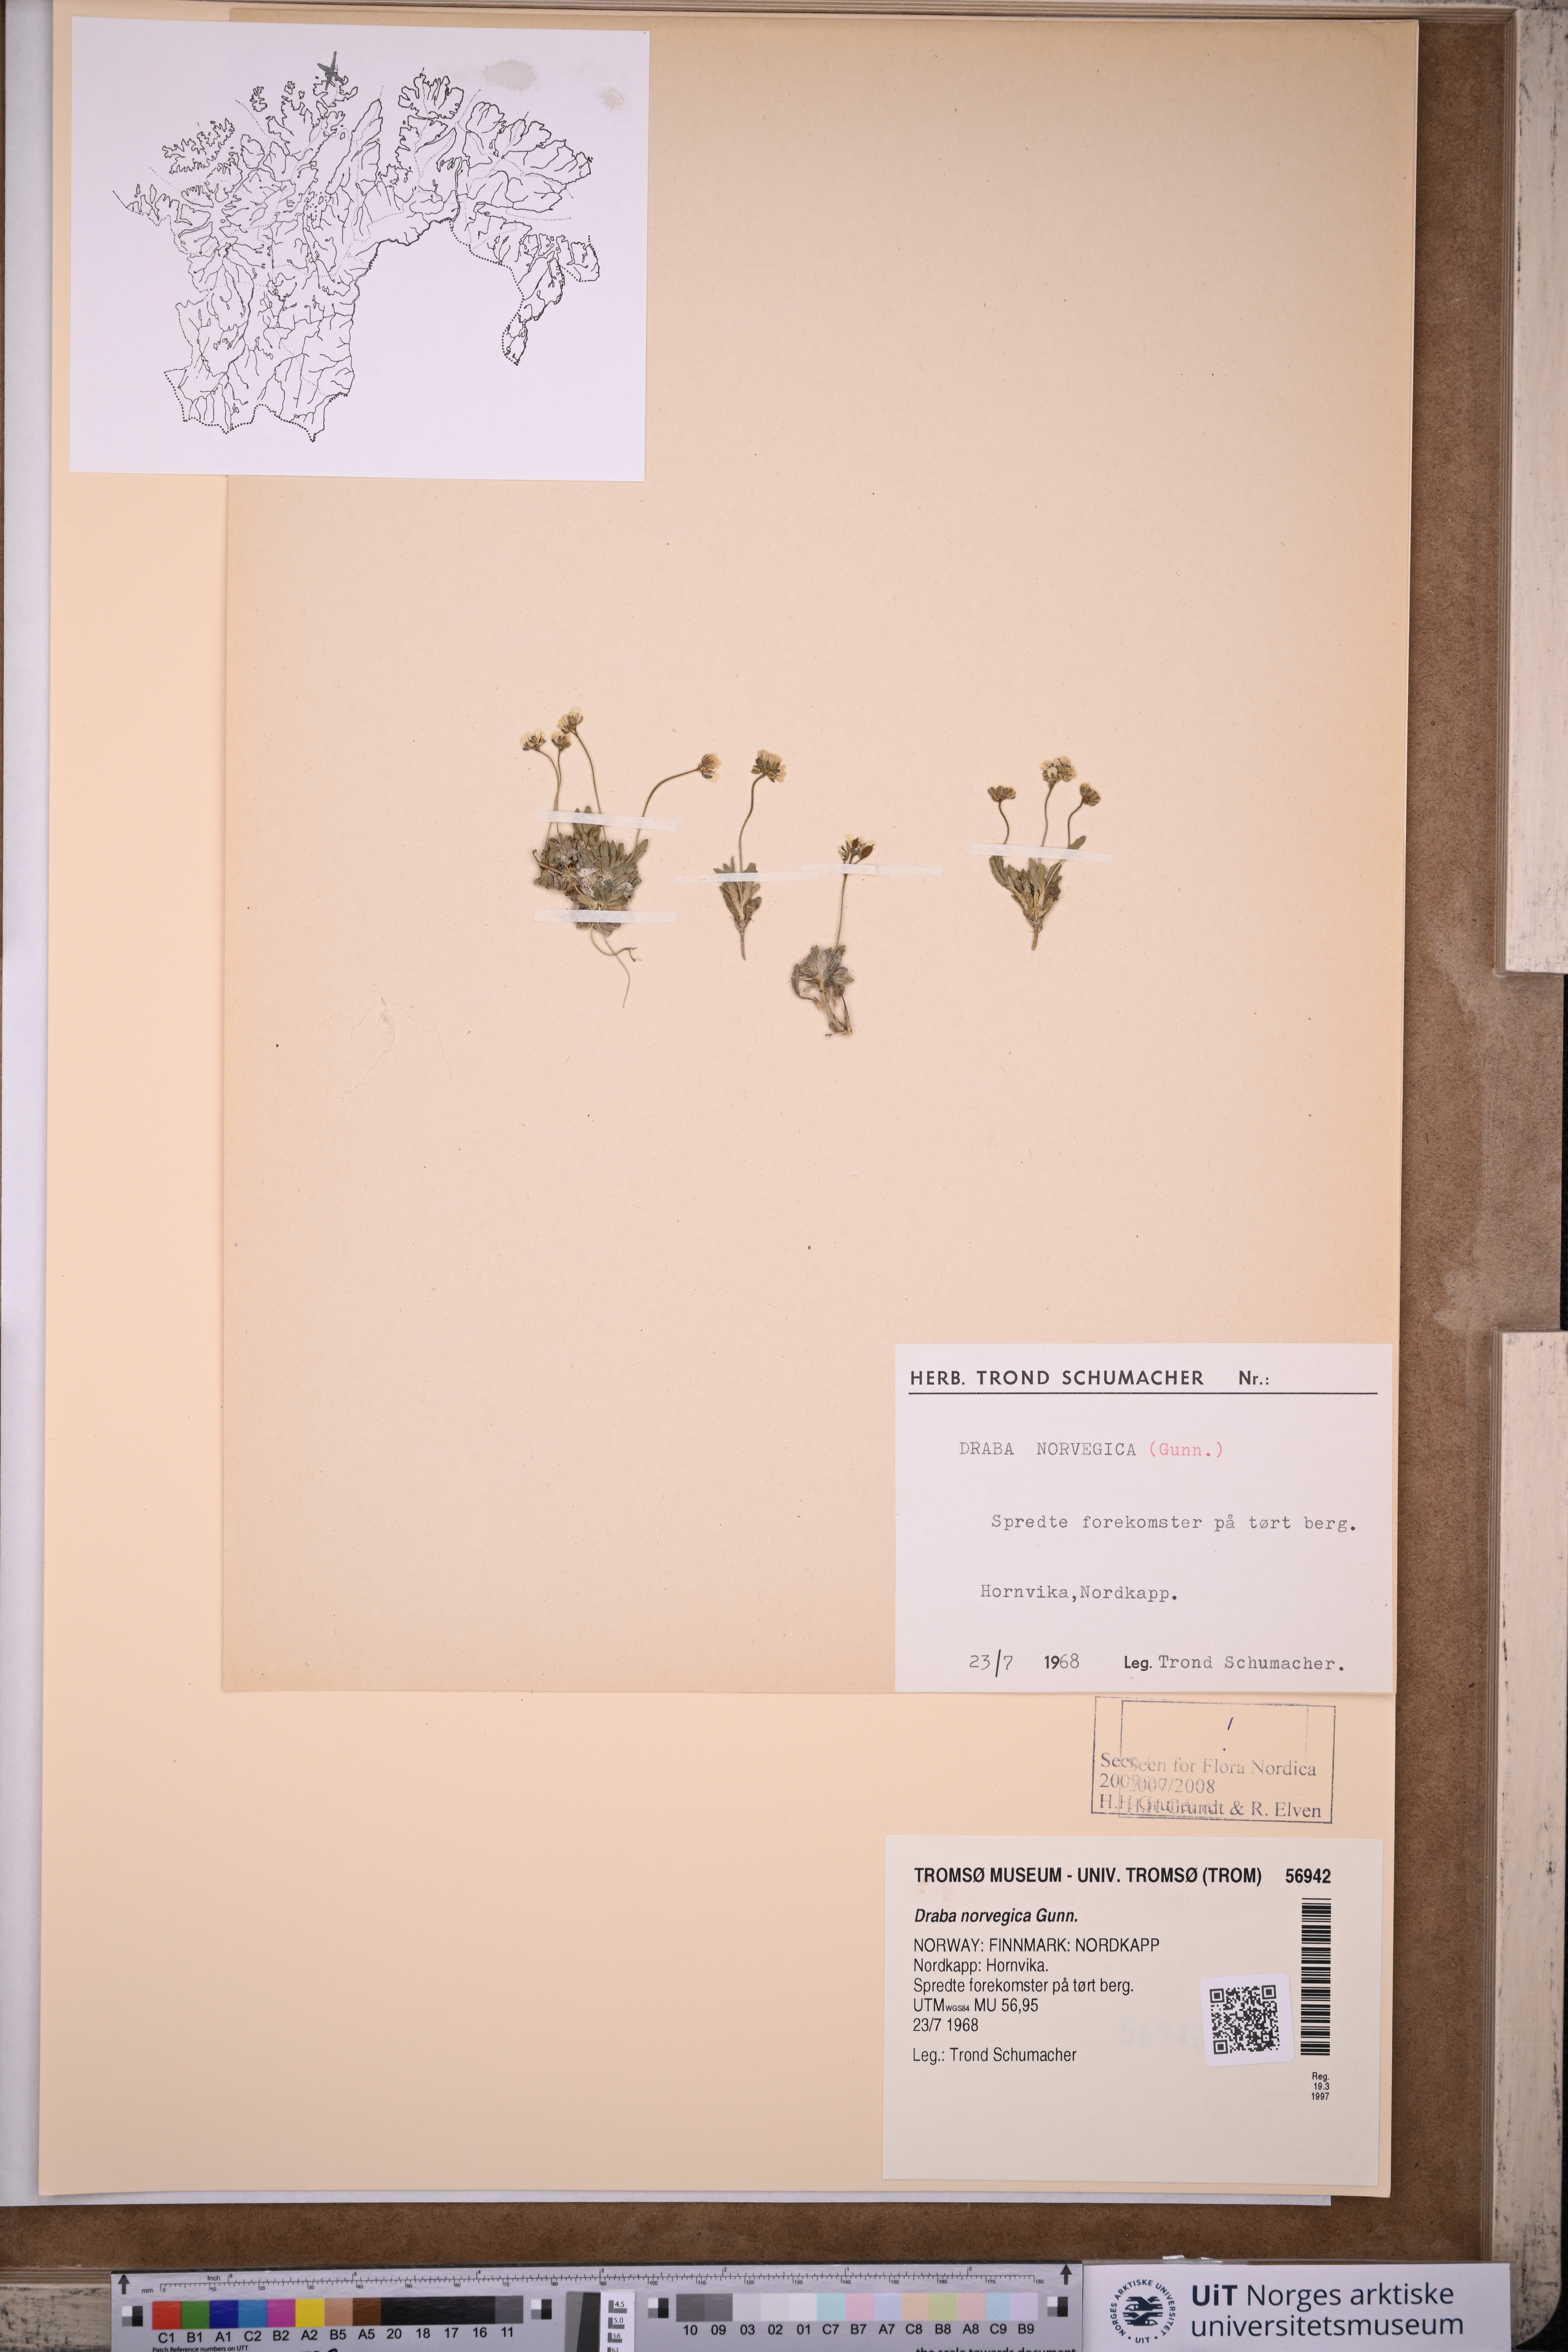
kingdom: Plantae
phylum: Tracheophyta
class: Magnoliopsida
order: Brassicales
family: Brassicaceae
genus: Draba
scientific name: Draba norvegica
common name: Rock whitlowgrass
